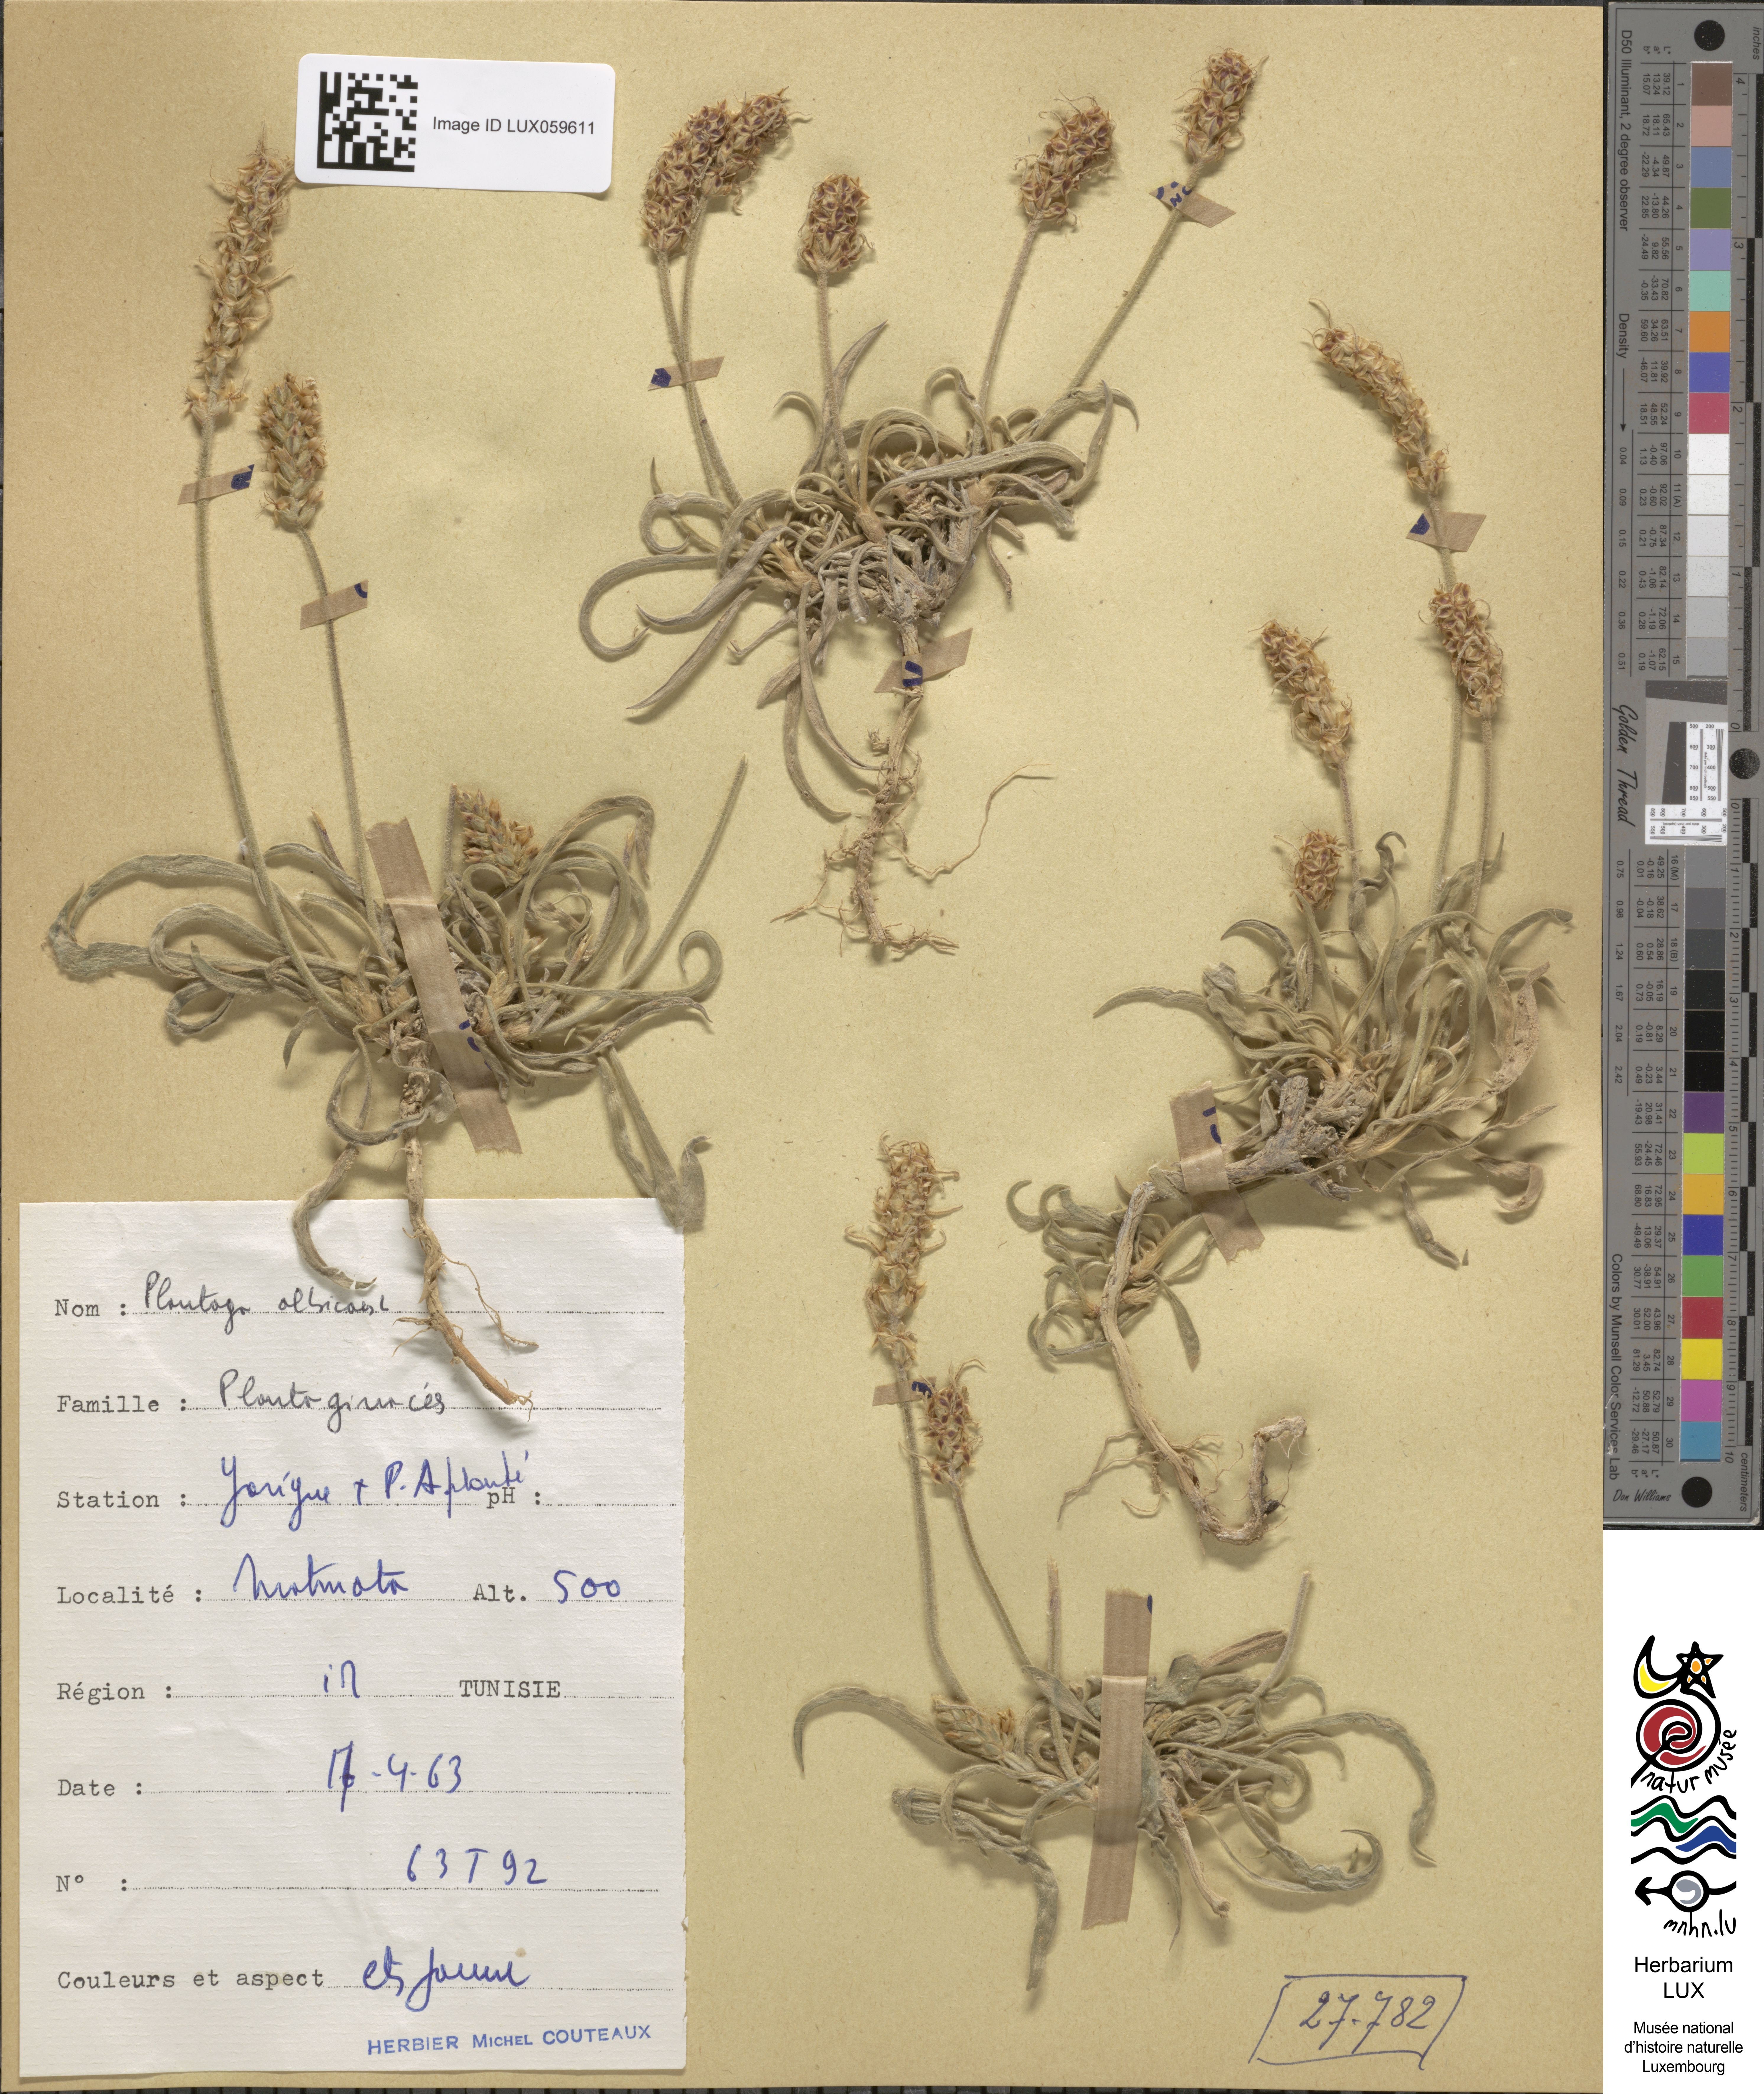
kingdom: Plantae
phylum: Tracheophyta
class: Magnoliopsida
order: Lamiales
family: Plantaginaceae
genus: Plantago
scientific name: Plantago albicans
